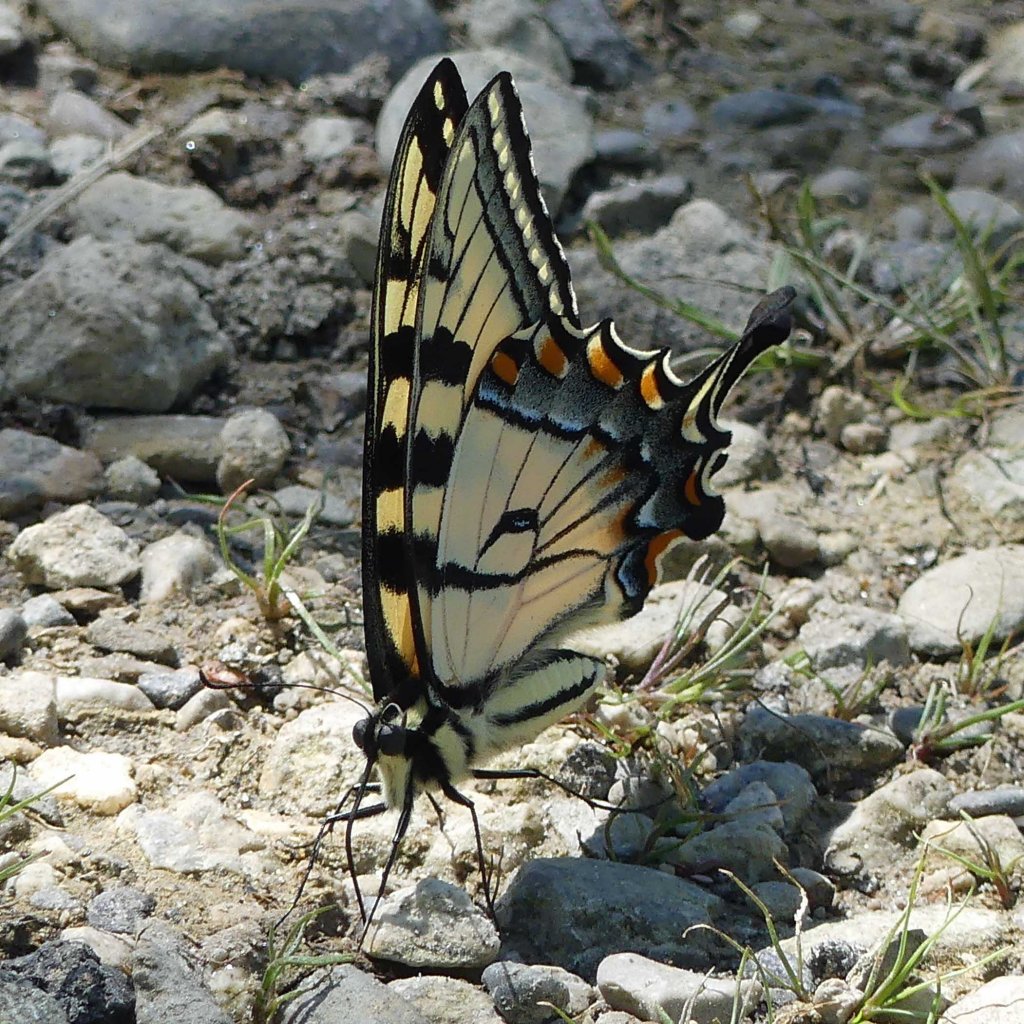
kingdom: Animalia
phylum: Arthropoda
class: Insecta
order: Lepidoptera
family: Papilionidae
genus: Pterourus
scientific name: Pterourus glaucus
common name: Eastern Tiger Swallowtail
